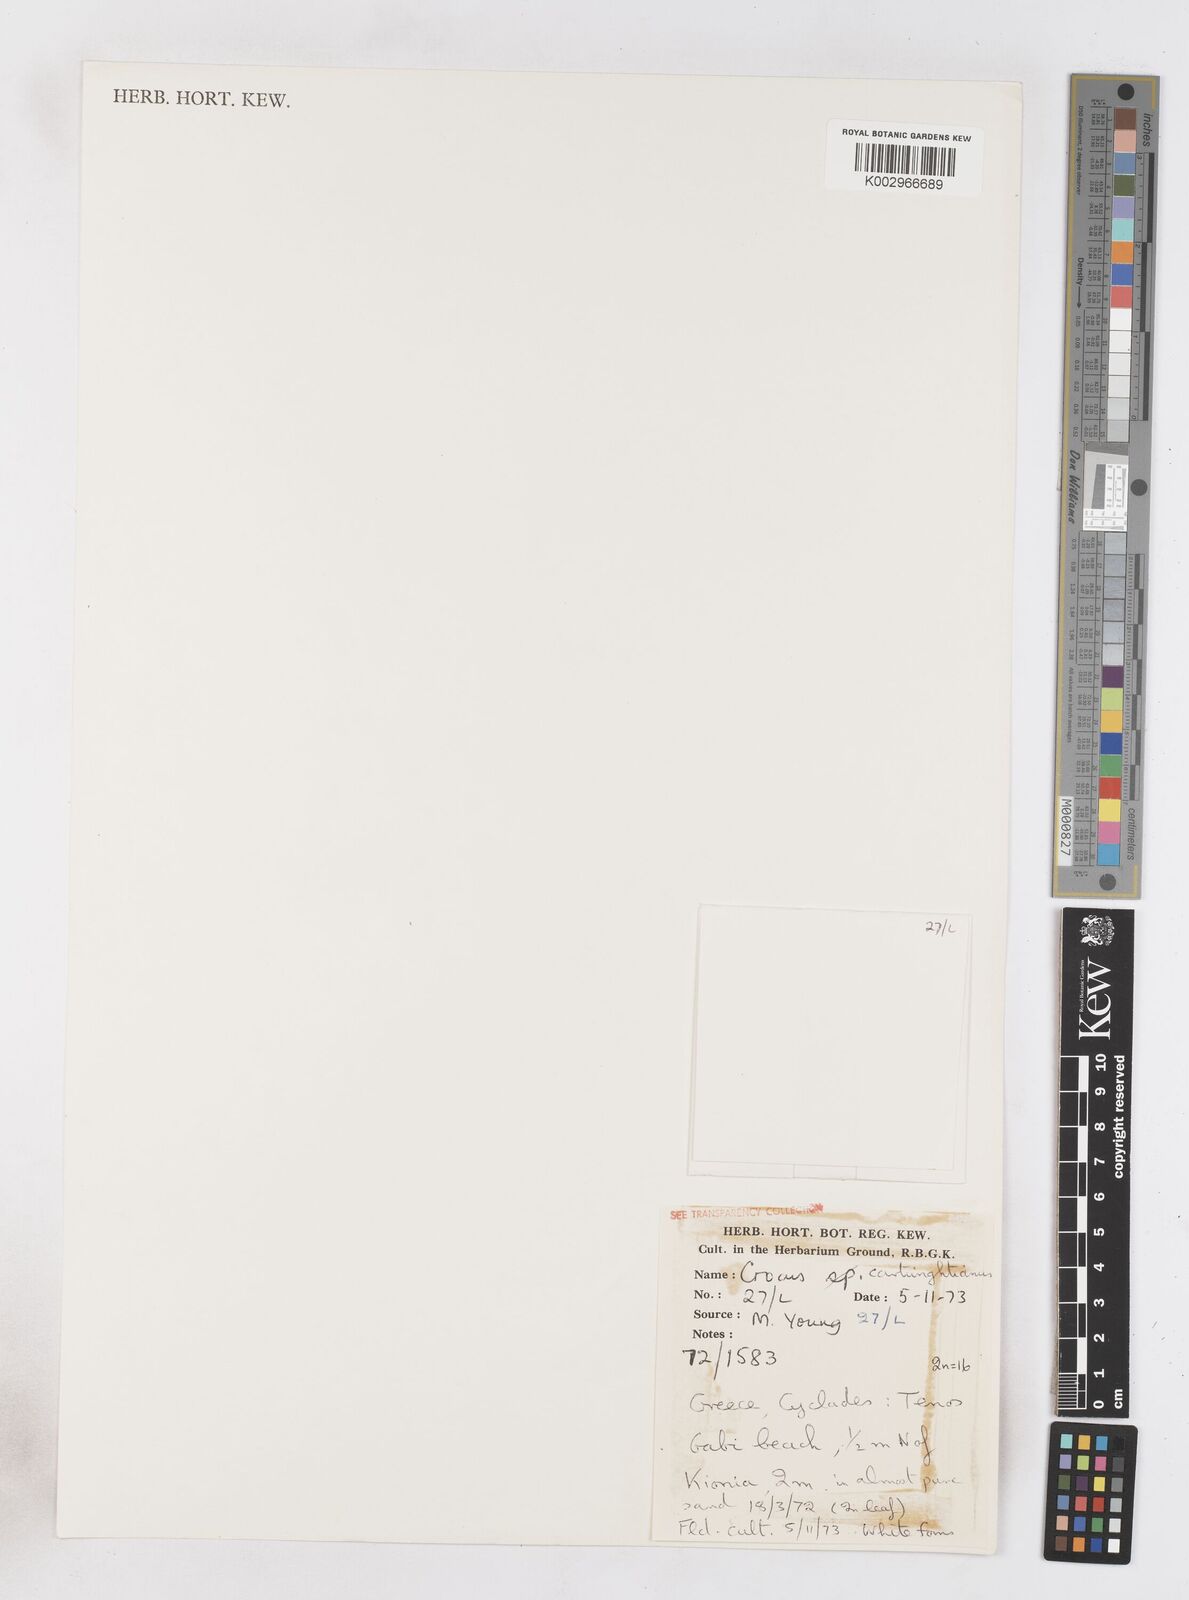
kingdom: Plantae
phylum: Tracheophyta
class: Liliopsida
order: Asparagales
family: Iridaceae
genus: Crocus
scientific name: Crocus cartwrightianus
